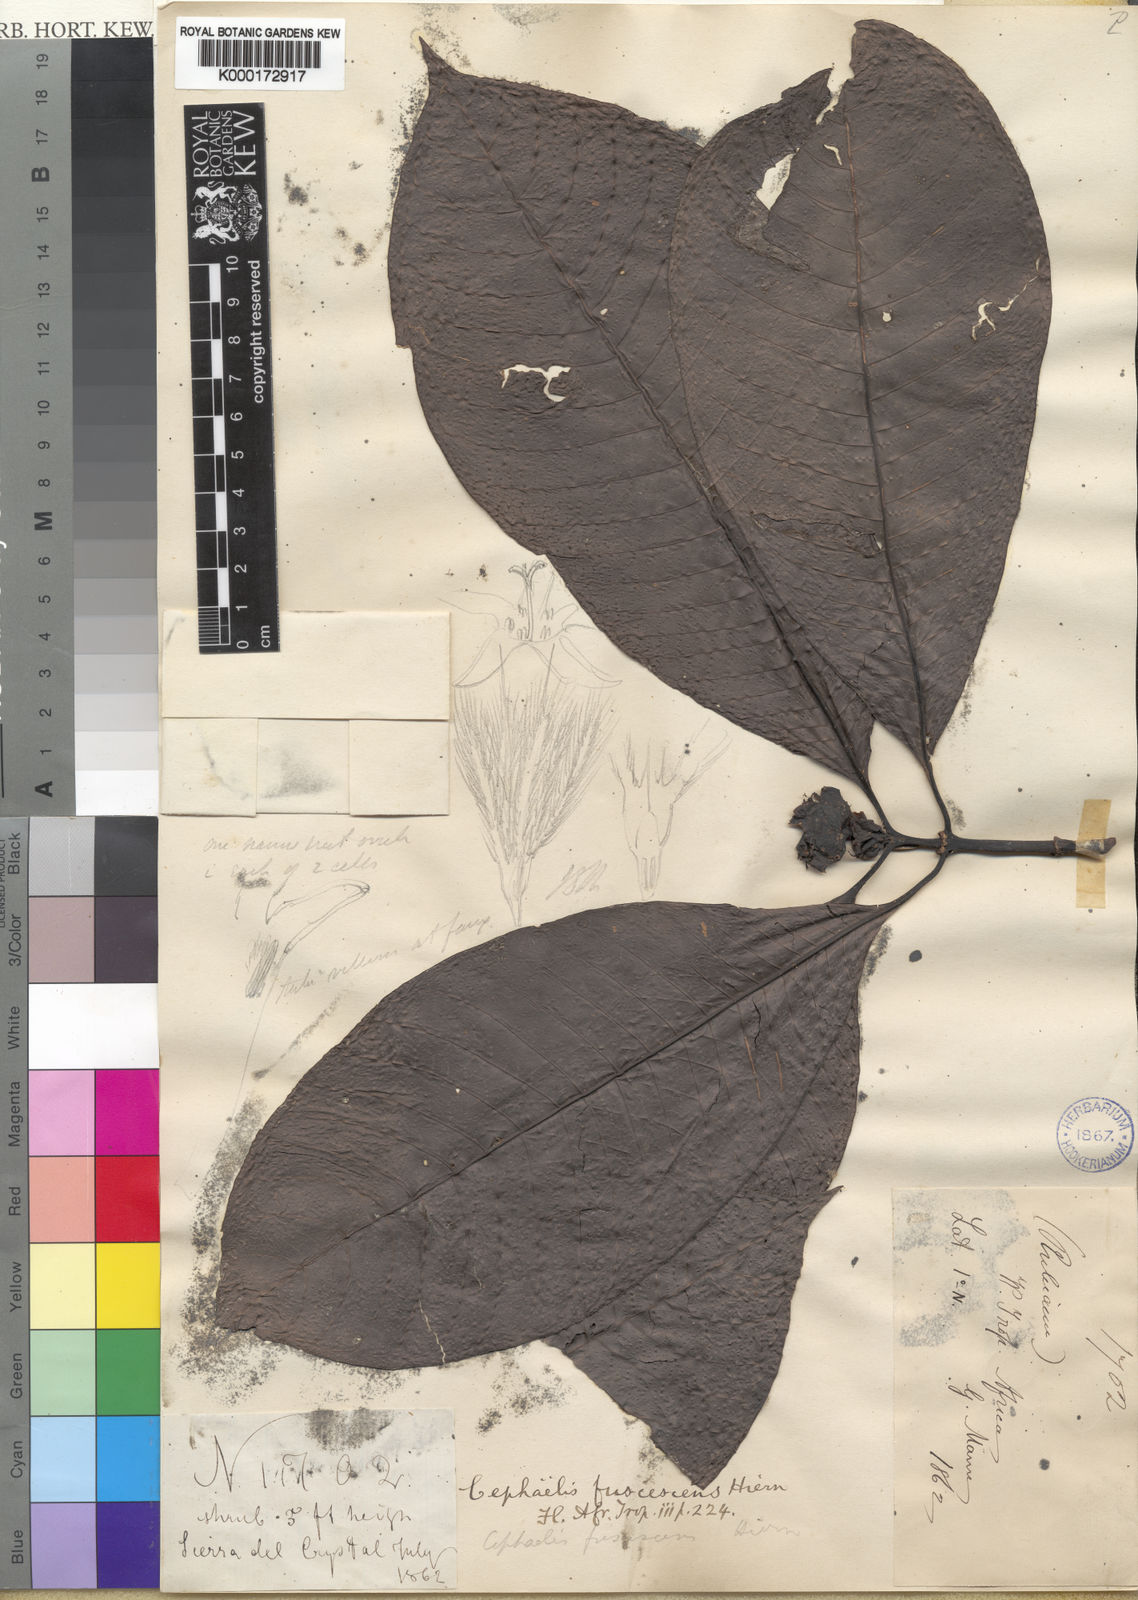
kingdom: Plantae
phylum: Tracheophyta
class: Magnoliopsida
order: Gentianales
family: Rubiaceae
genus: Psychotria
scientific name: Psychotria fuscescens
